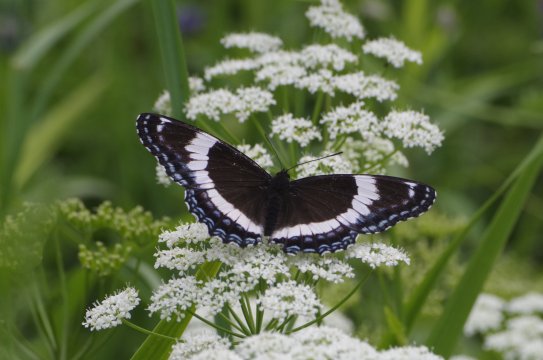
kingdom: Animalia
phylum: Arthropoda
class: Insecta
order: Lepidoptera
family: Nymphalidae
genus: Limenitis
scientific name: Limenitis arthemis
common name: Red-spotted Admiral
